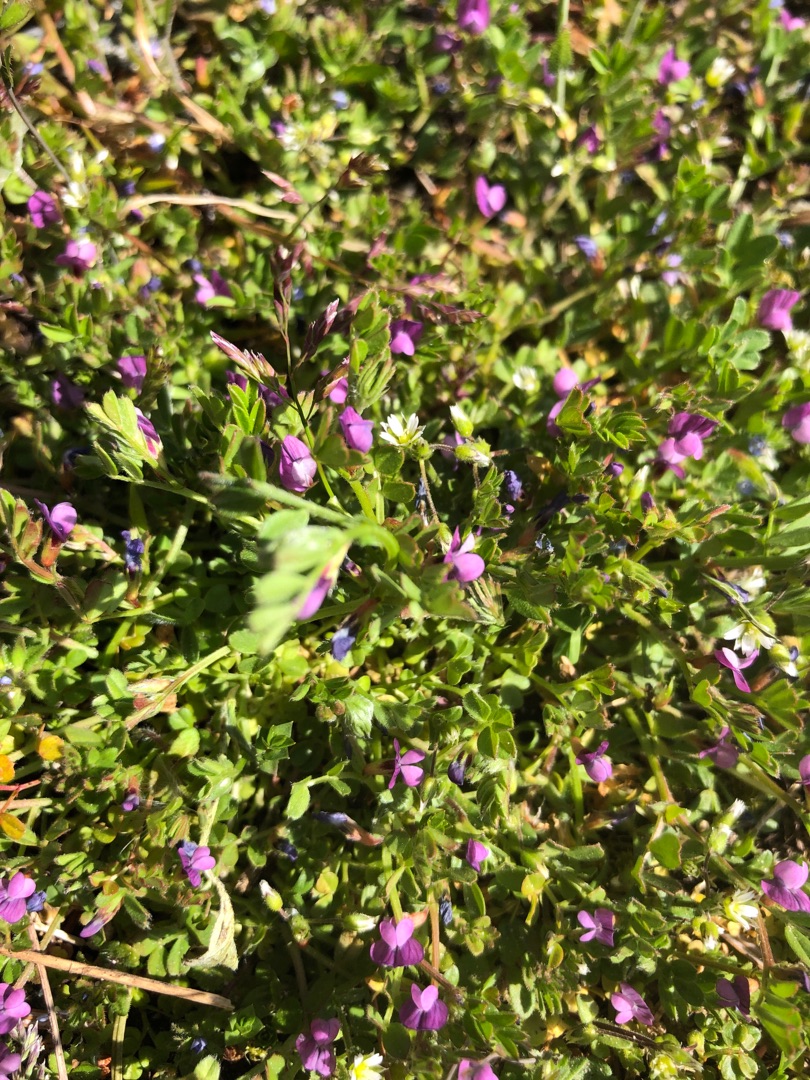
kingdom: Plantae
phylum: Tracheophyta
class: Magnoliopsida
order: Fabales
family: Fabaceae
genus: Vicia
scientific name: Vicia lathyroides
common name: Vår-vikke
